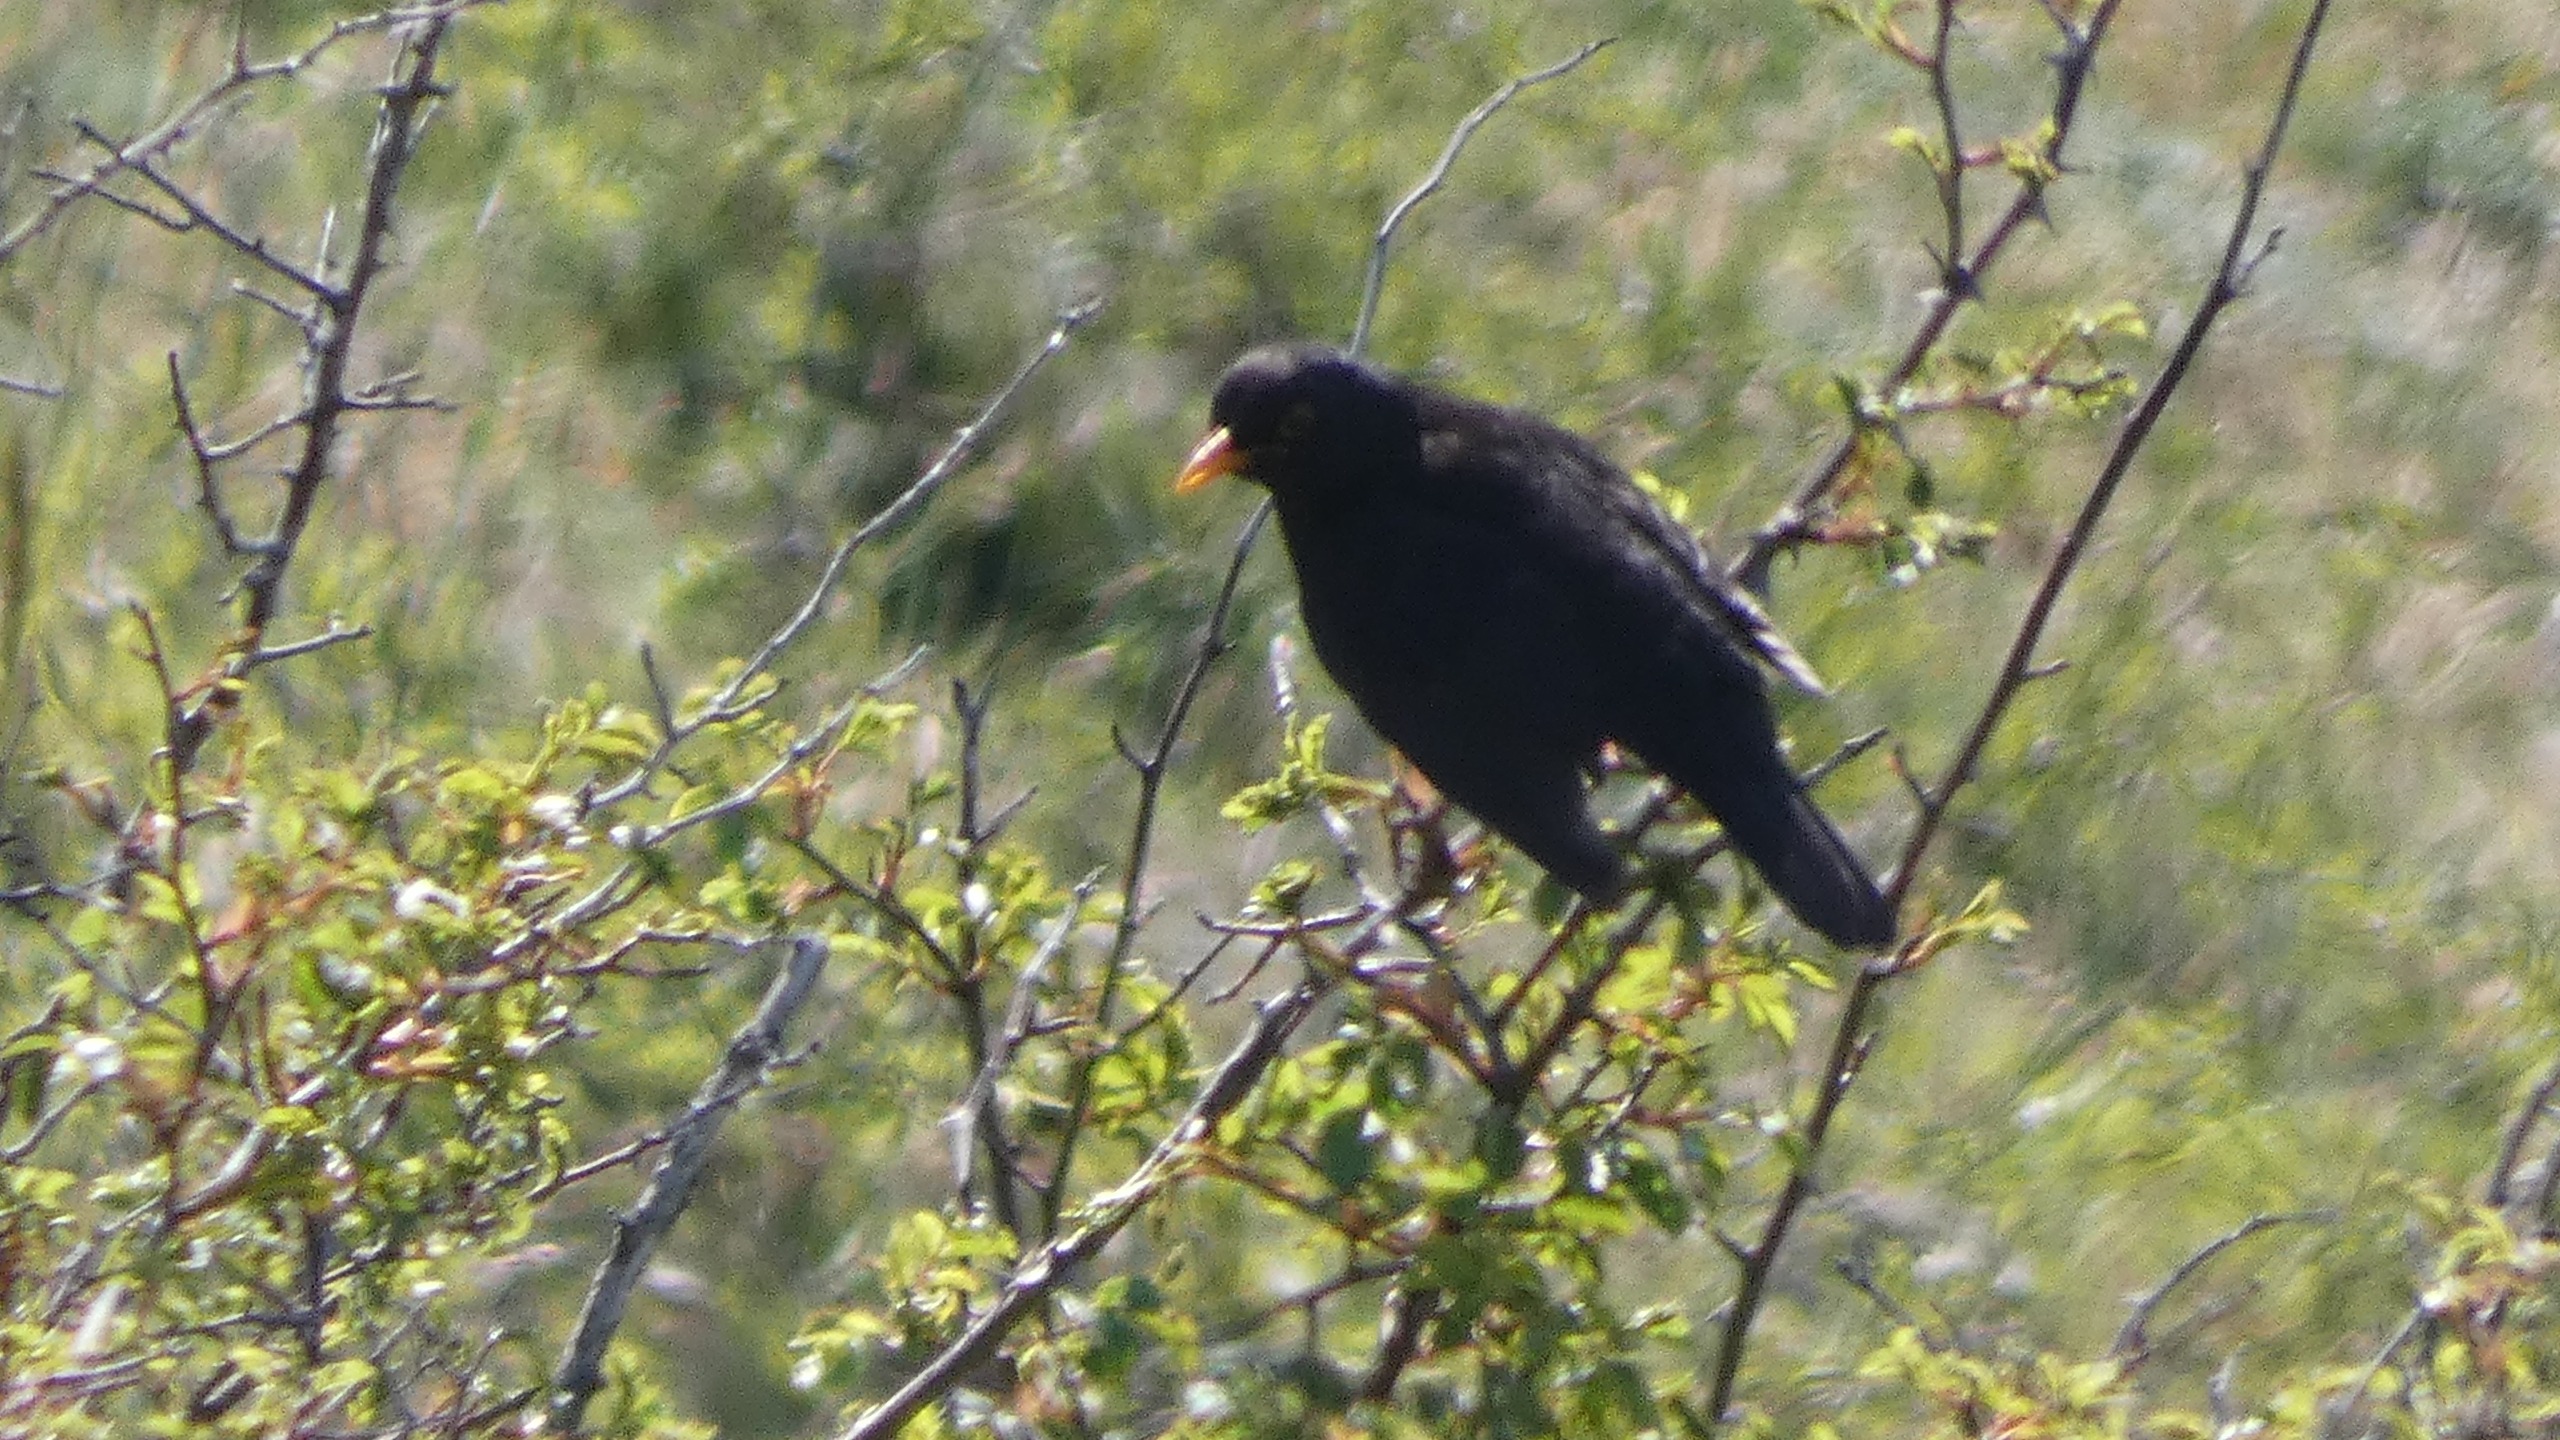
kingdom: Animalia
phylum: Chordata
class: Aves
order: Passeriformes
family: Turdidae
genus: Turdus
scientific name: Turdus merula
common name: Solsort
